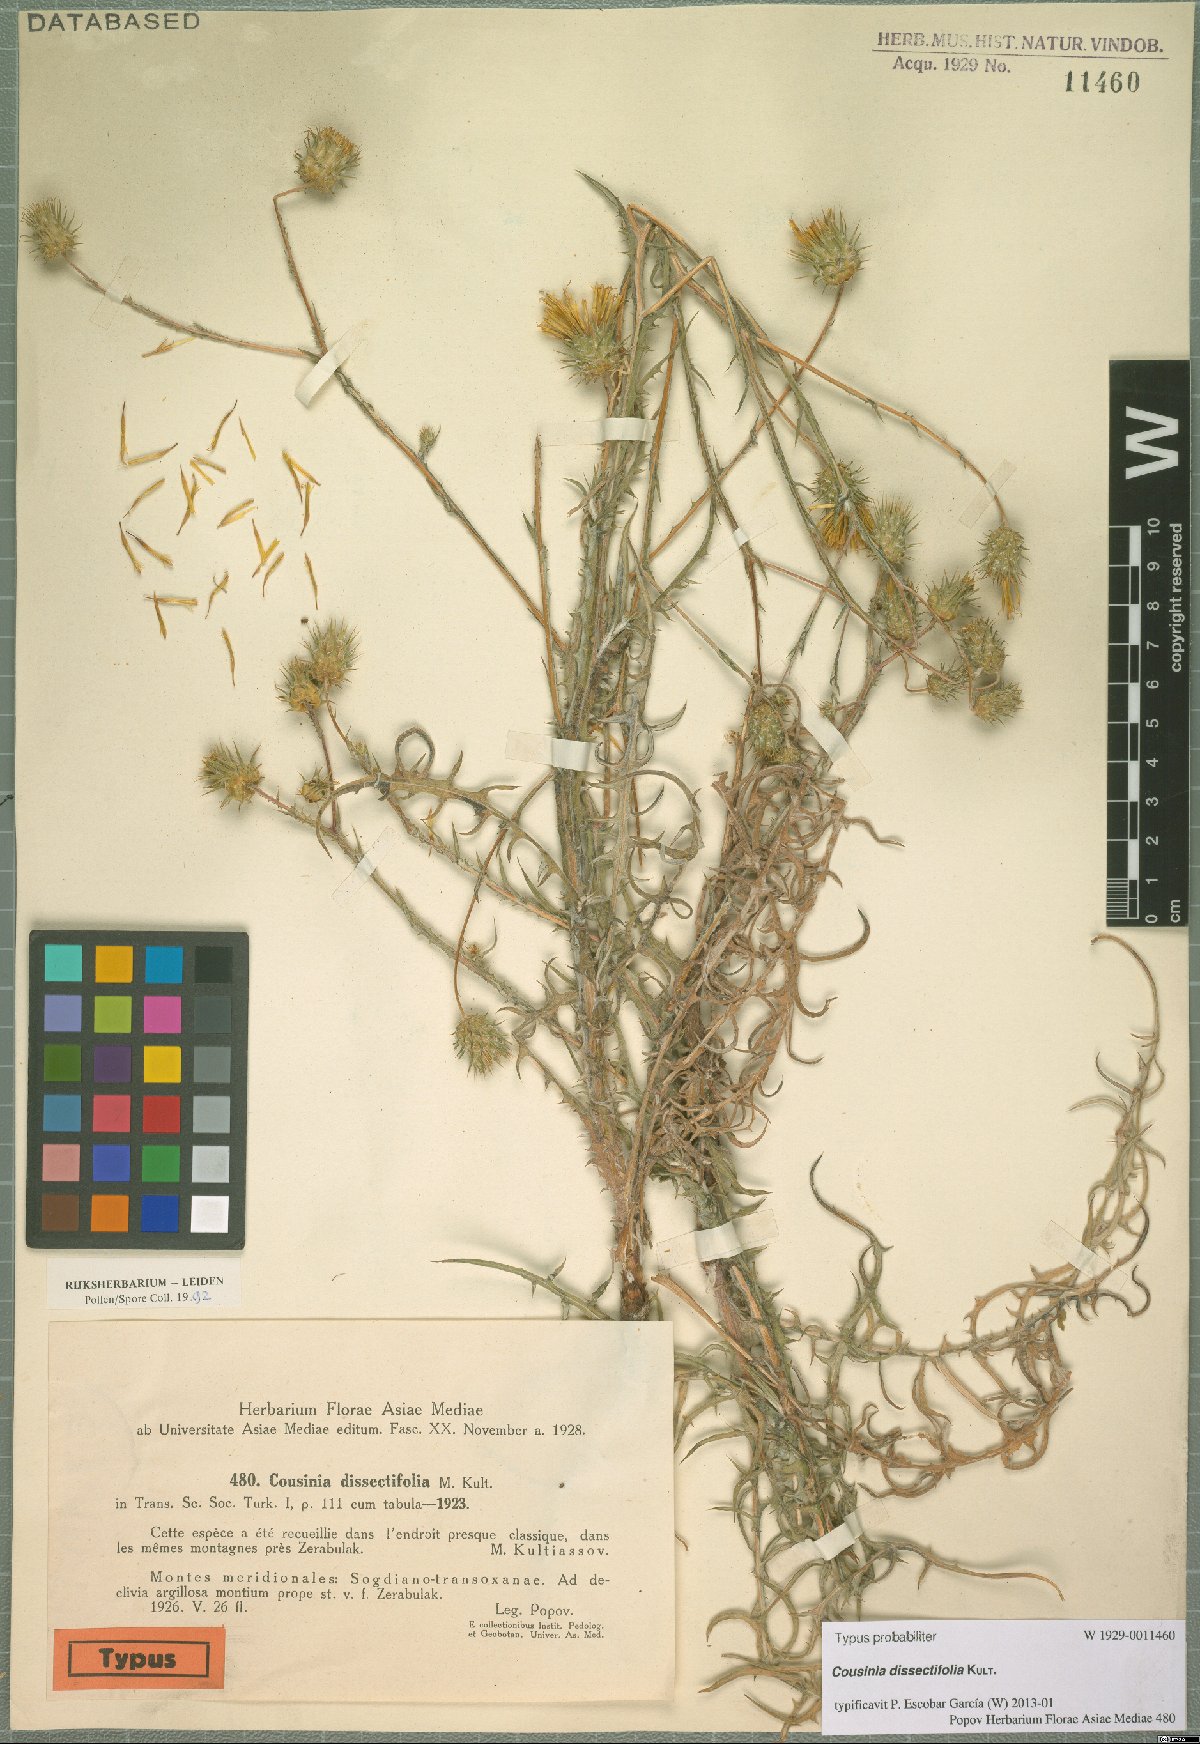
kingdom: Plantae
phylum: Tracheophyta
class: Magnoliopsida
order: Asterales
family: Asteraceae
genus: Cousinia
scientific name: Cousinia dissectifolia
